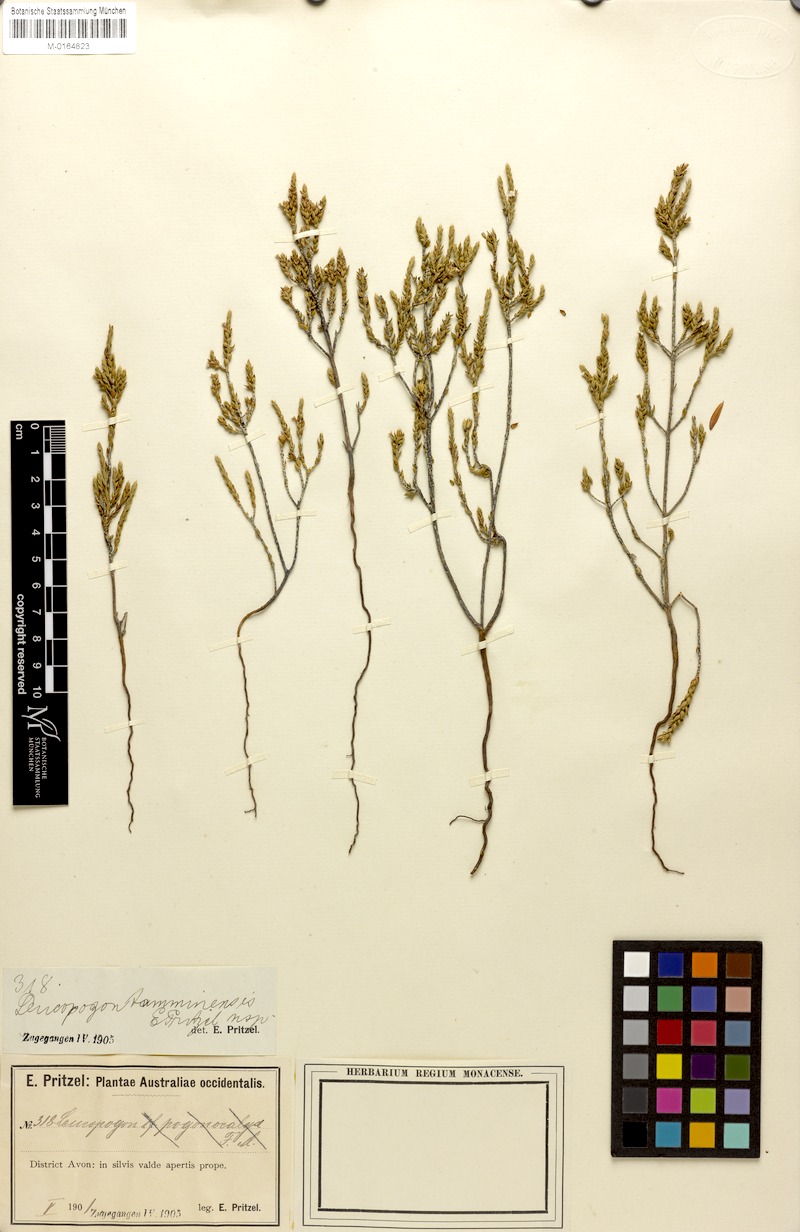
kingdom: Plantae
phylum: Tracheophyta
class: Magnoliopsida
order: Ericales
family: Ericaceae
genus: Styphelia
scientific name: Styphelia tamminensis
